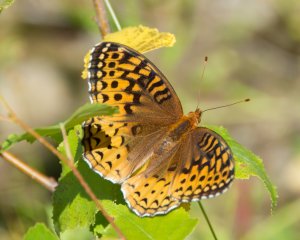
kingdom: Animalia
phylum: Arthropoda
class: Insecta
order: Lepidoptera
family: Nymphalidae
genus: Speyeria
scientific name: Speyeria cybele
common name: Great Spangled Fritillary
